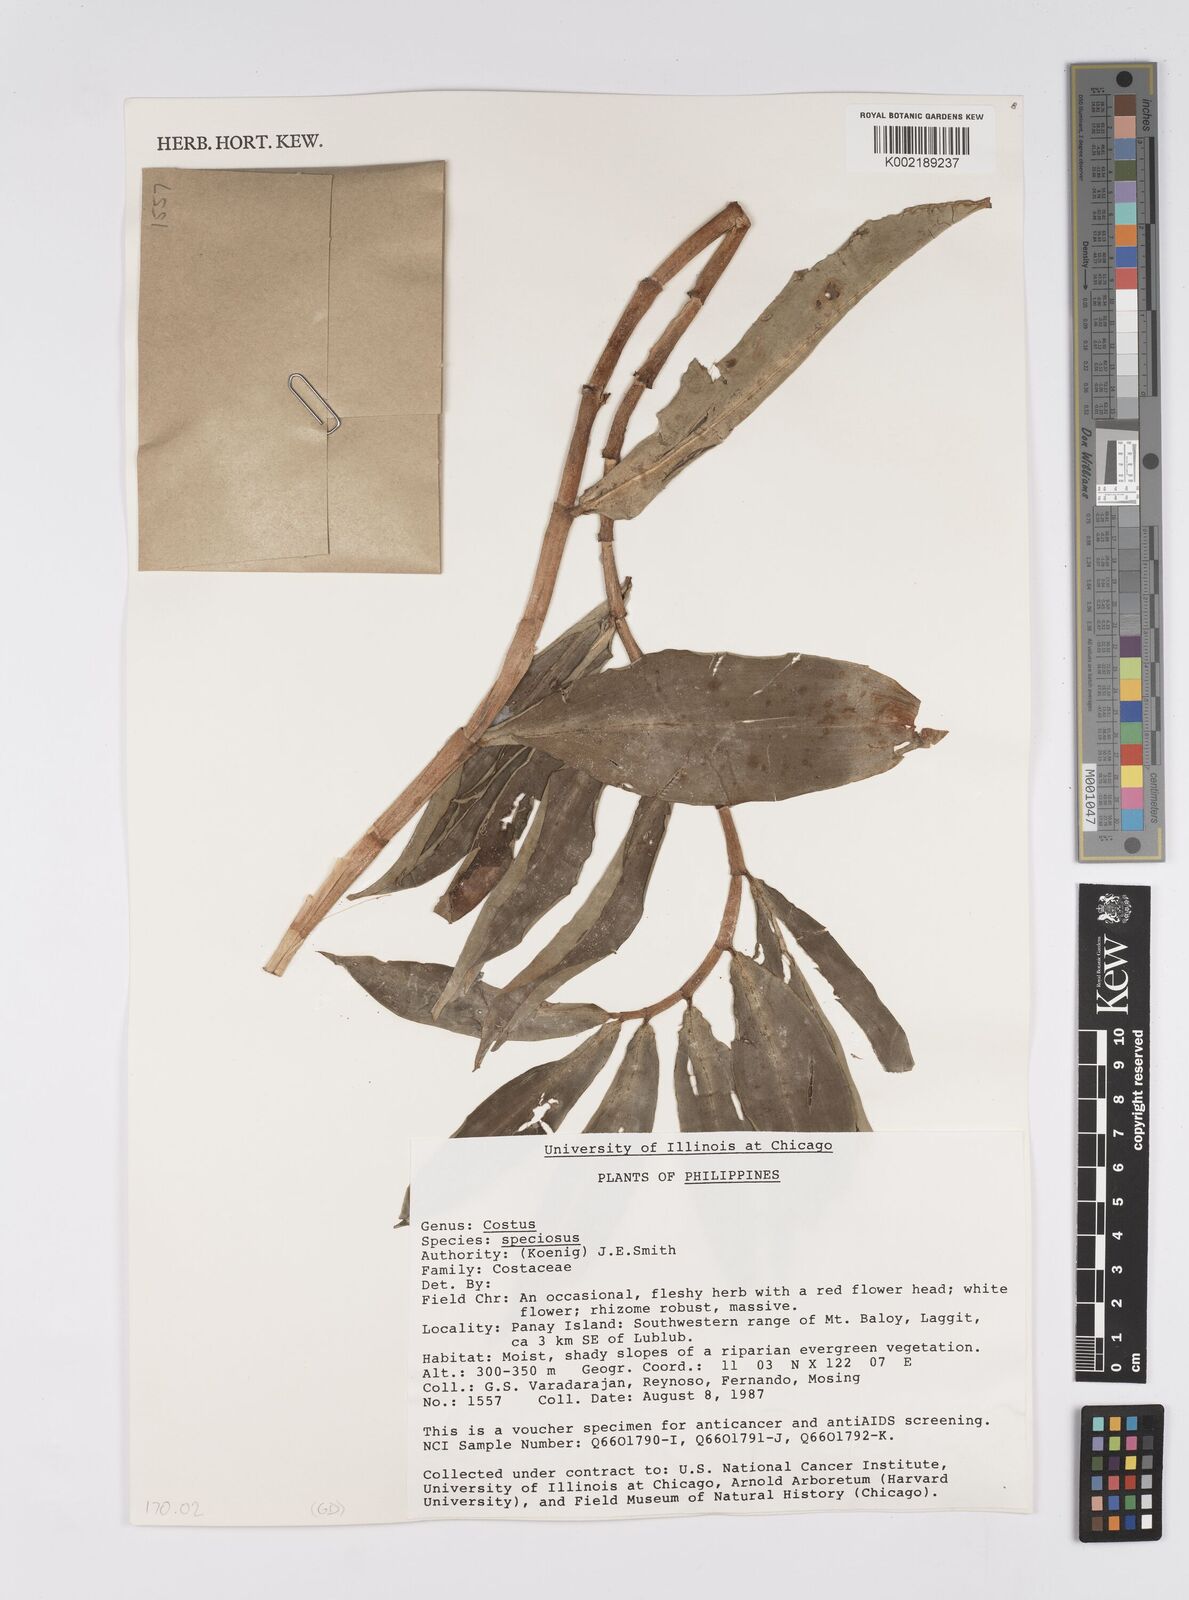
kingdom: Plantae
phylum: Tracheophyta
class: Liliopsida
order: Zingiberales
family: Costaceae
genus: Hellenia
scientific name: Hellenia speciosa
